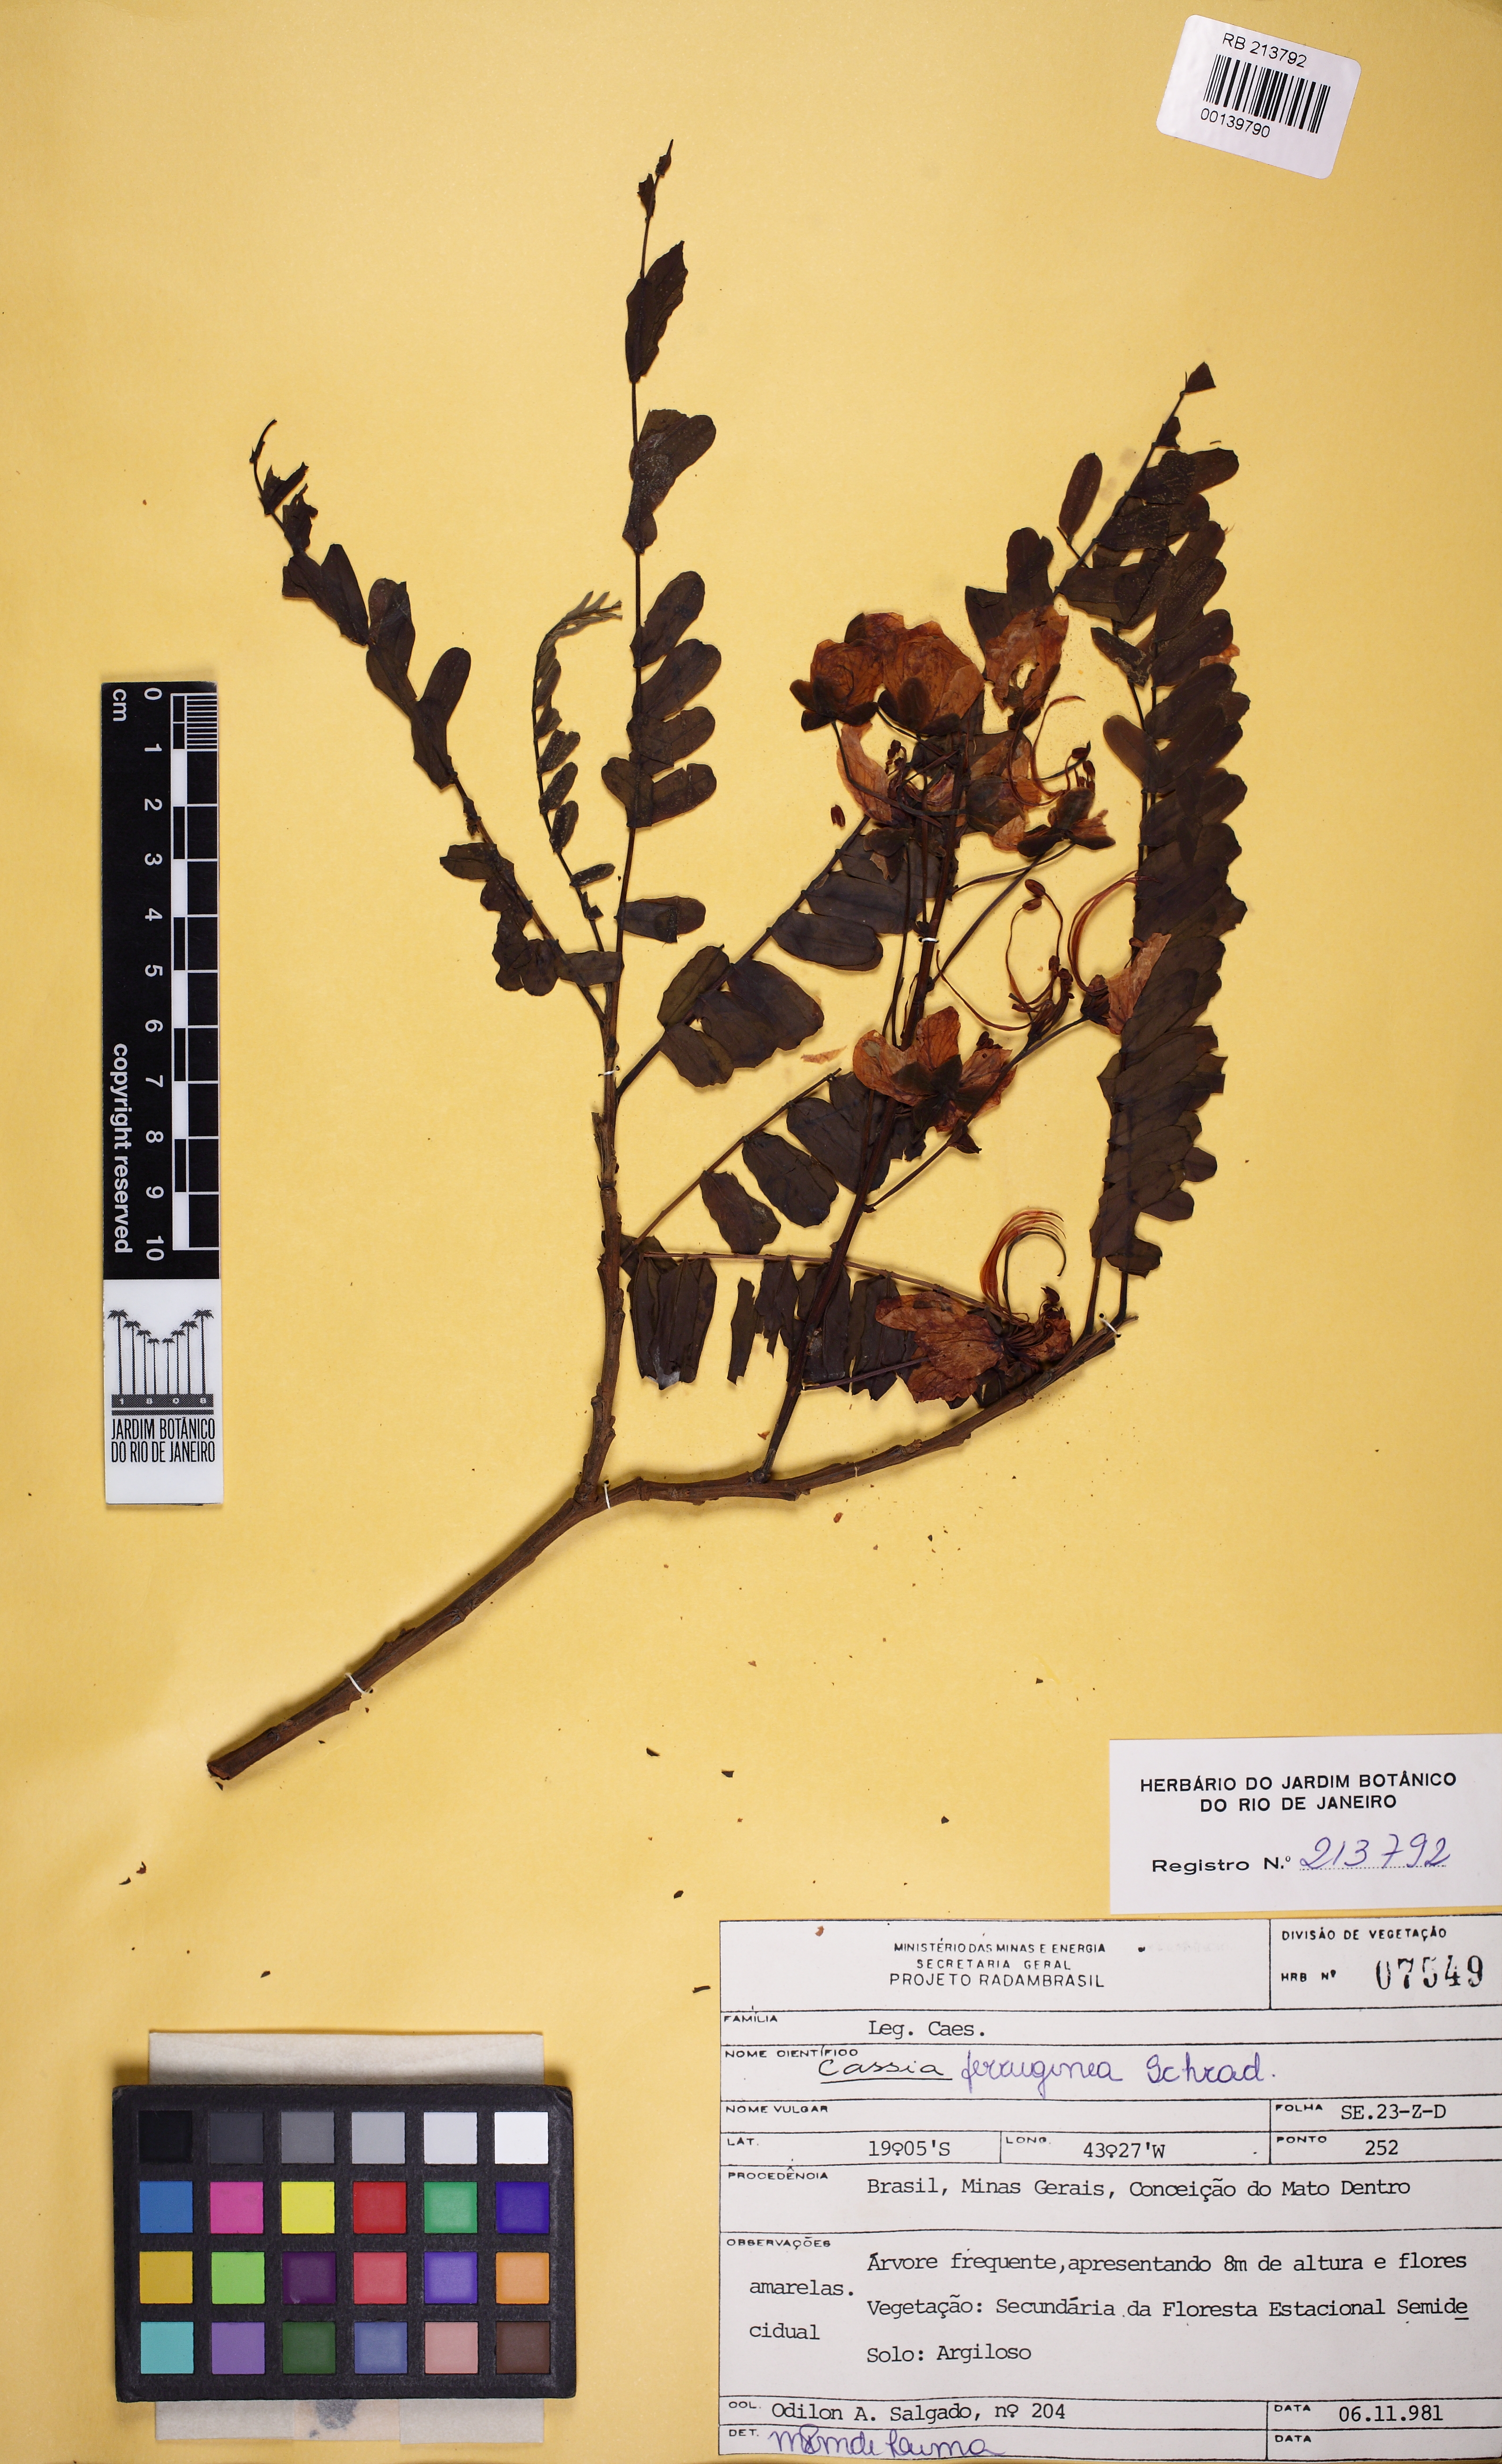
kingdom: Plantae
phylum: Tracheophyta
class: Magnoliopsida
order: Fabales
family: Fabaceae
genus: Cassia
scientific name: Cassia ferruginea
